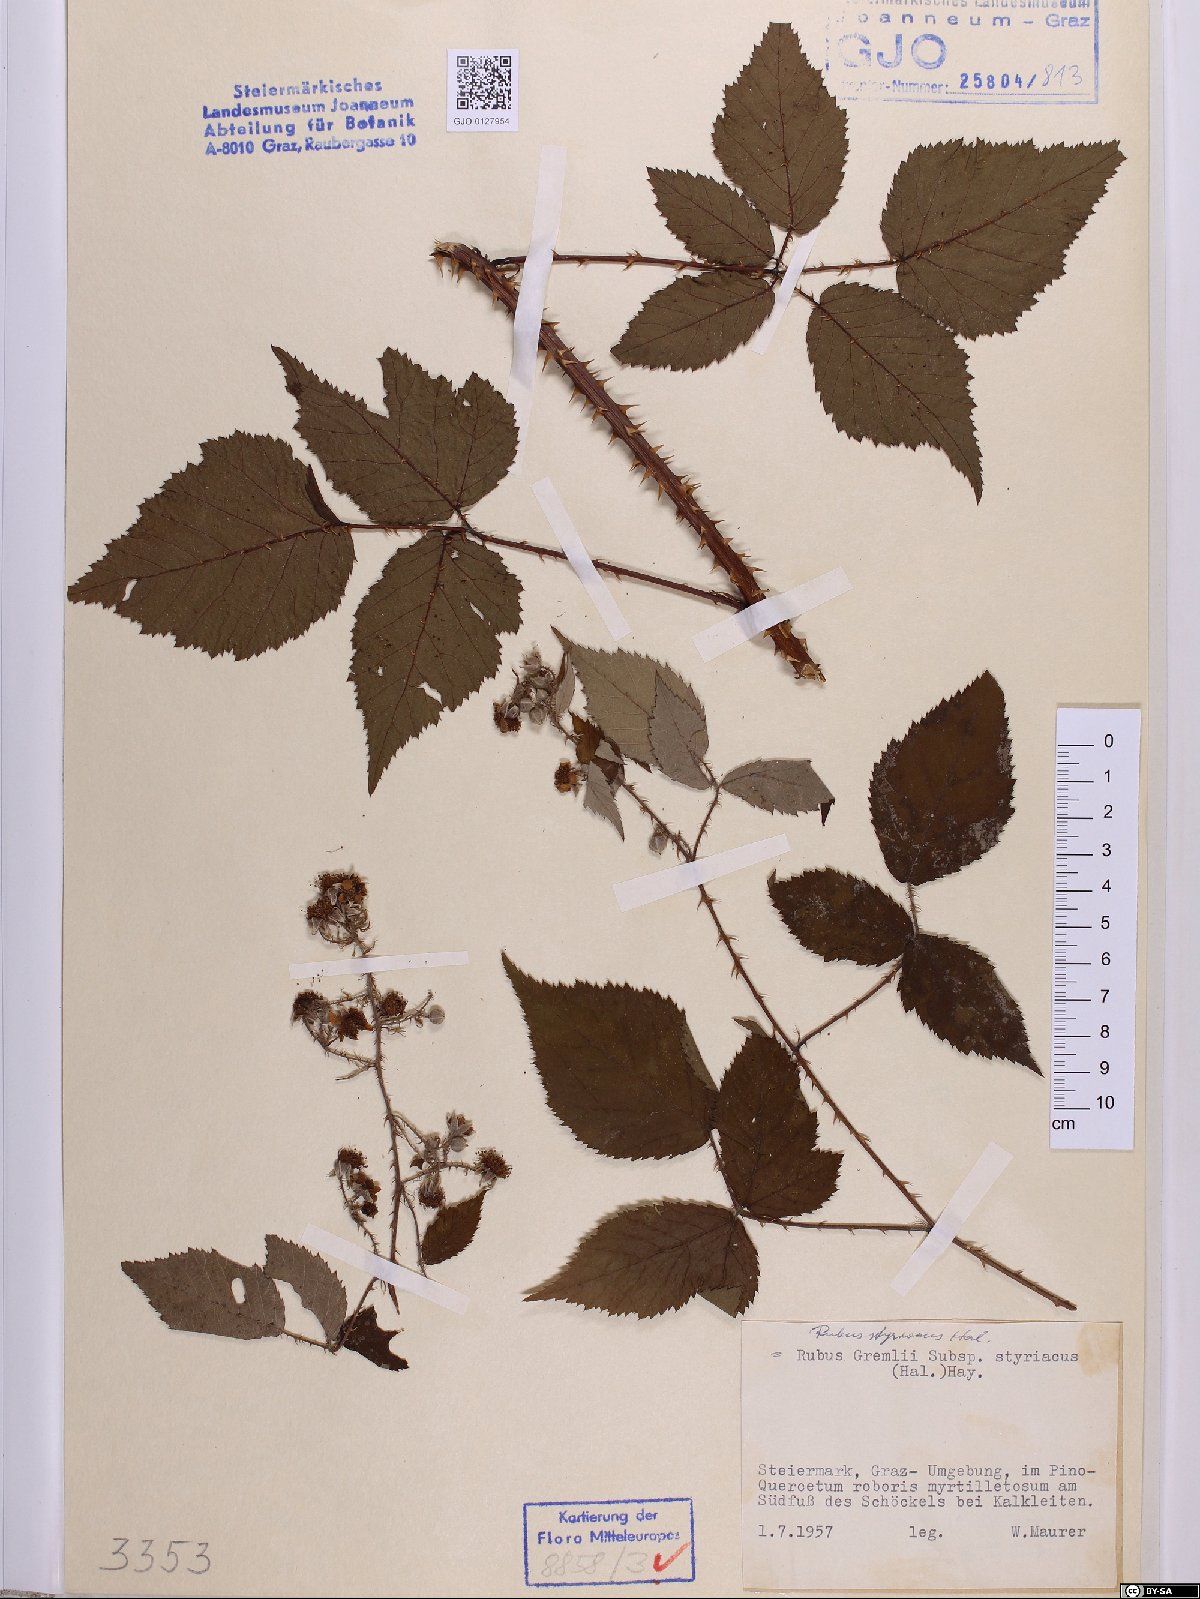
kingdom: Plantae
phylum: Tracheophyta
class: Magnoliopsida
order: Rosales
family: Rosaceae
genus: Rubus
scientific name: Rubus styriacus
